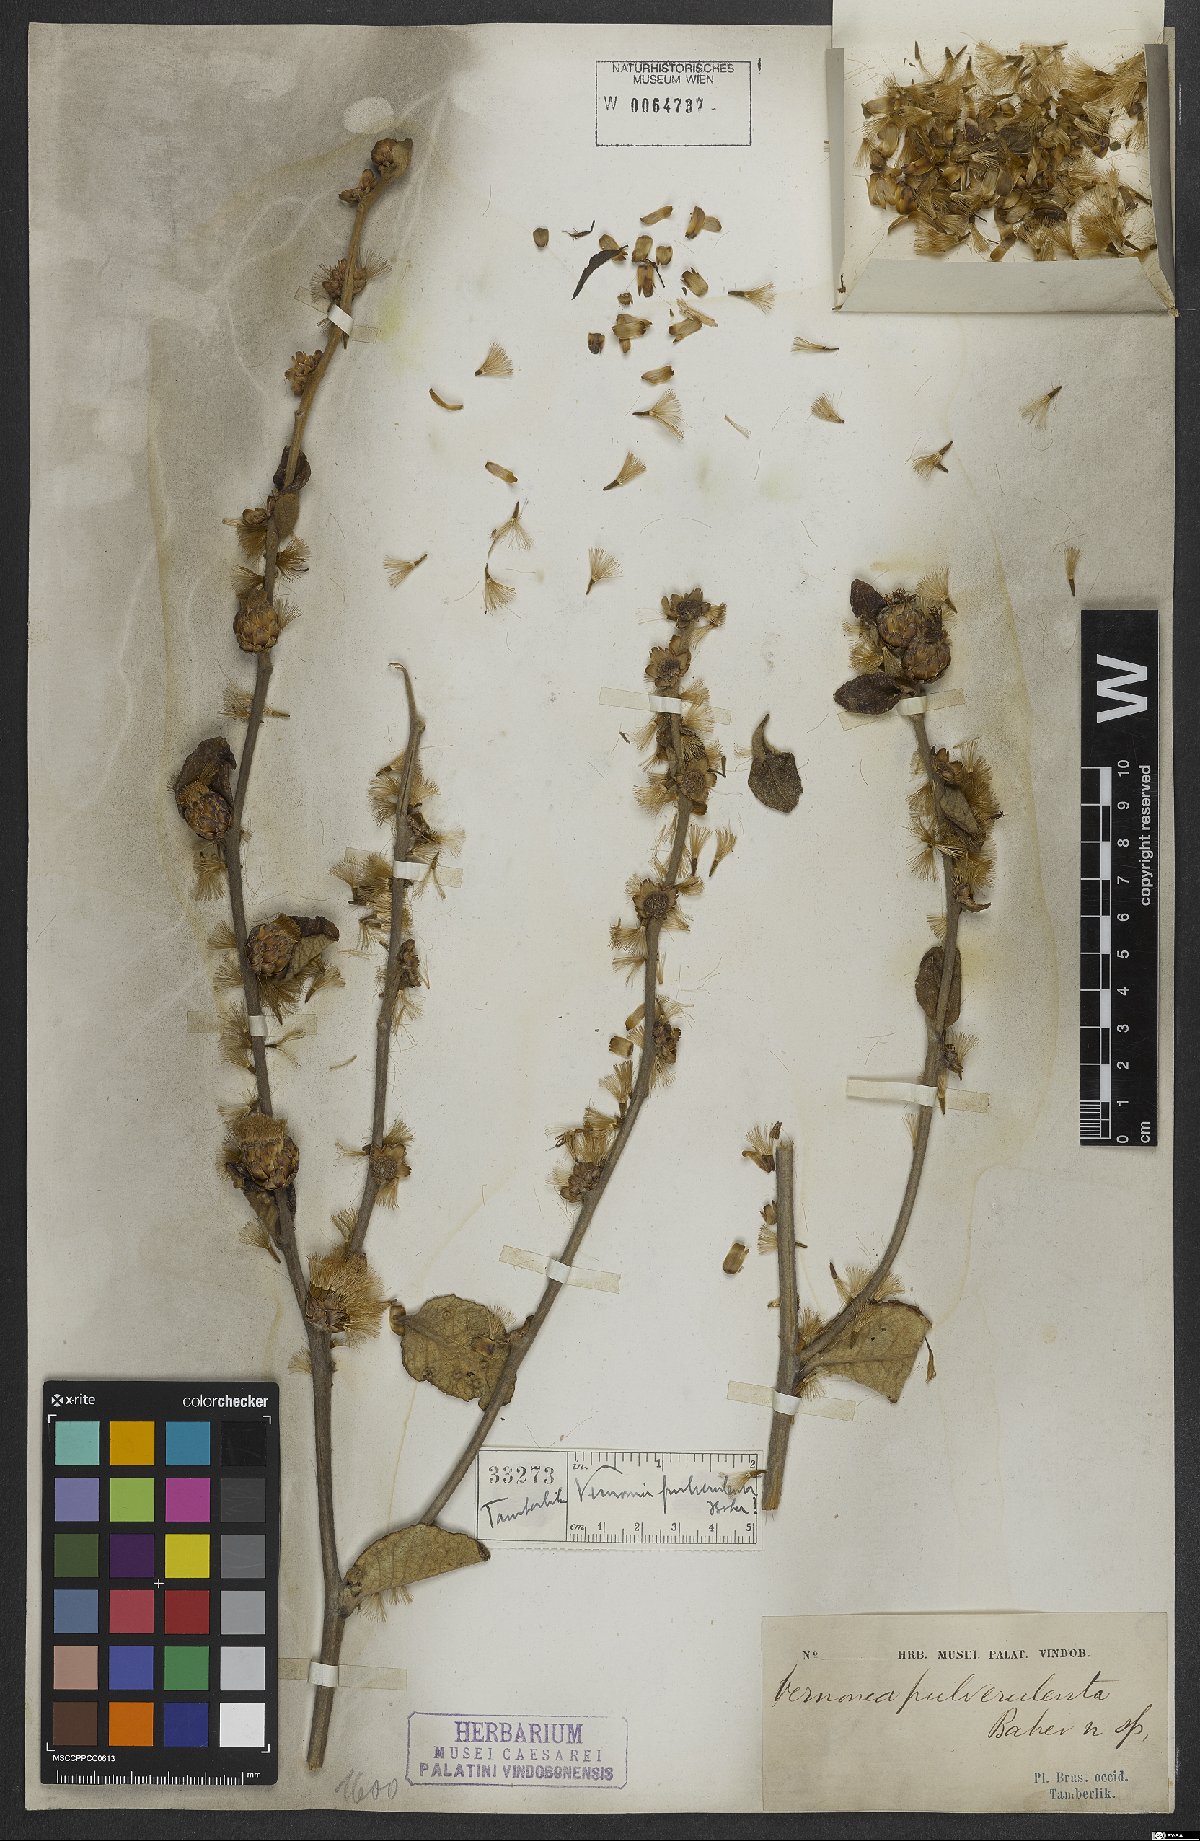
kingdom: Plantae
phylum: Tracheophyta
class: Magnoliopsida
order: Asterales
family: Asteraceae
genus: Lessingianthus
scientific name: Lessingianthus pulverulentus
